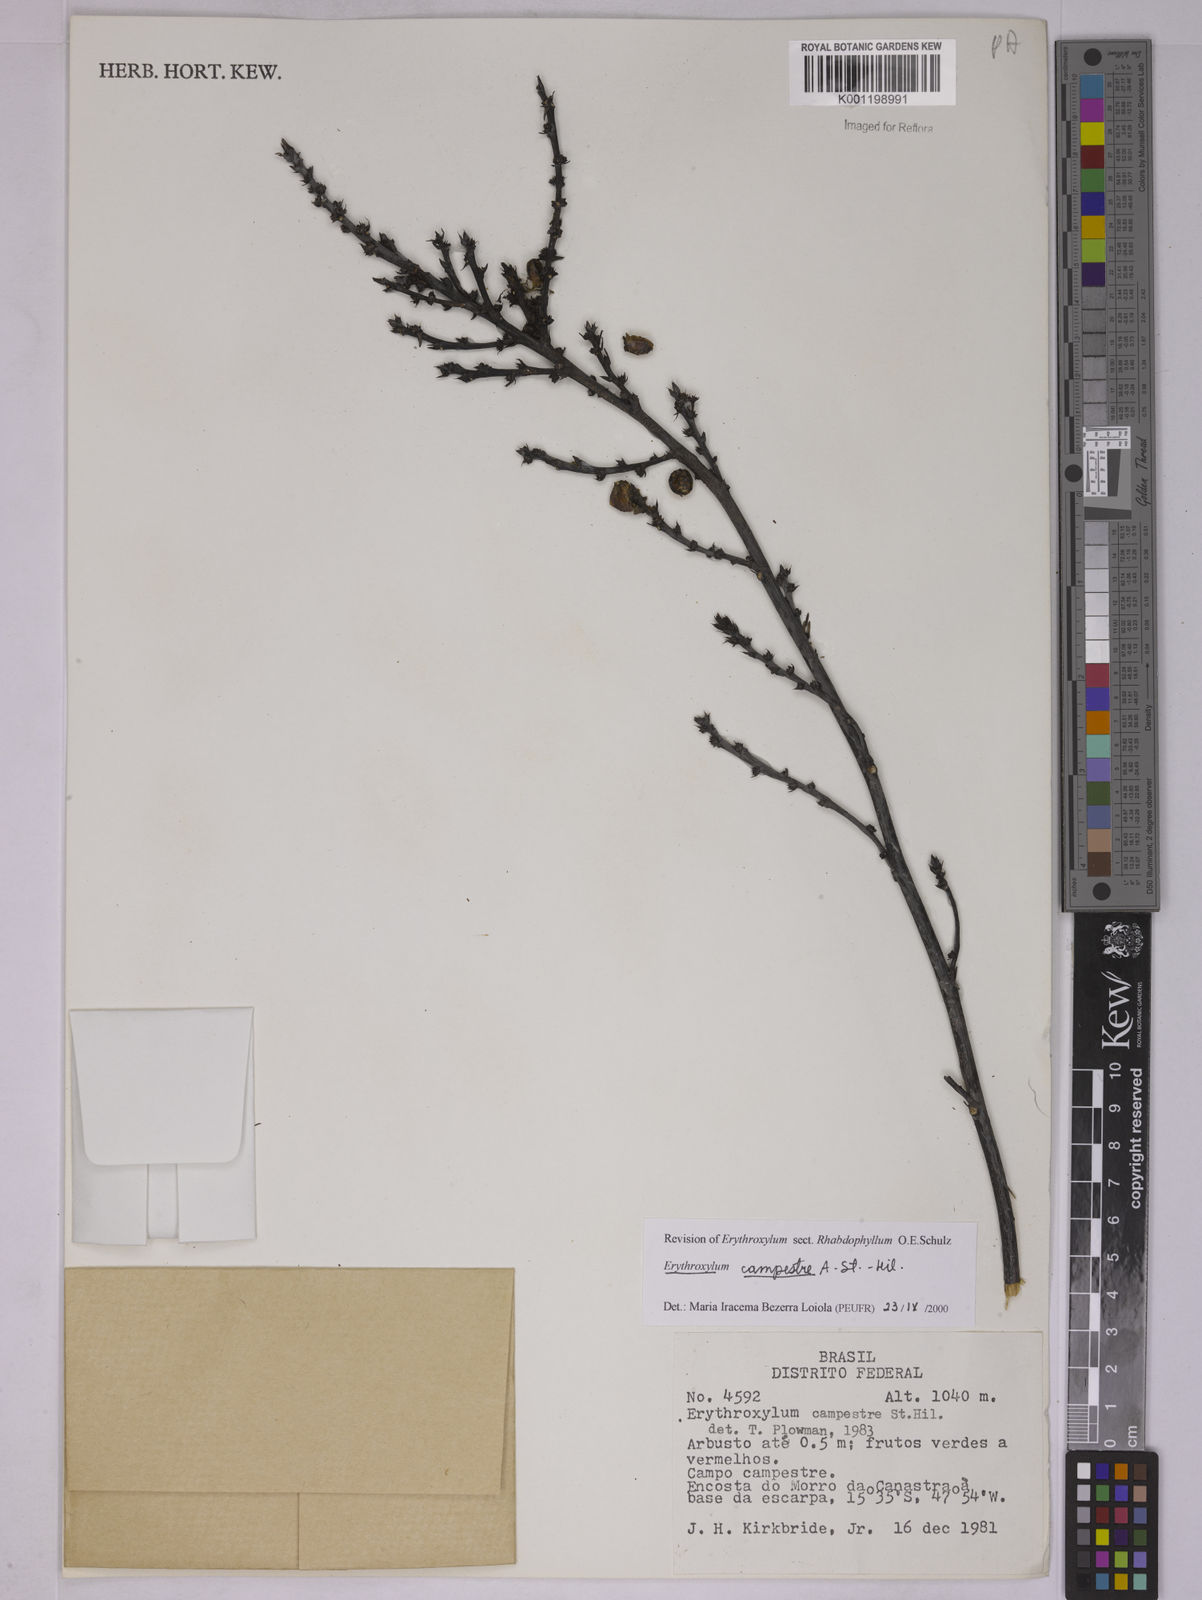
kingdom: Plantae
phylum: Tracheophyta
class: Magnoliopsida
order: Malpighiales
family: Erythroxylaceae
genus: Erythroxylum
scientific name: Erythroxylum campestre
